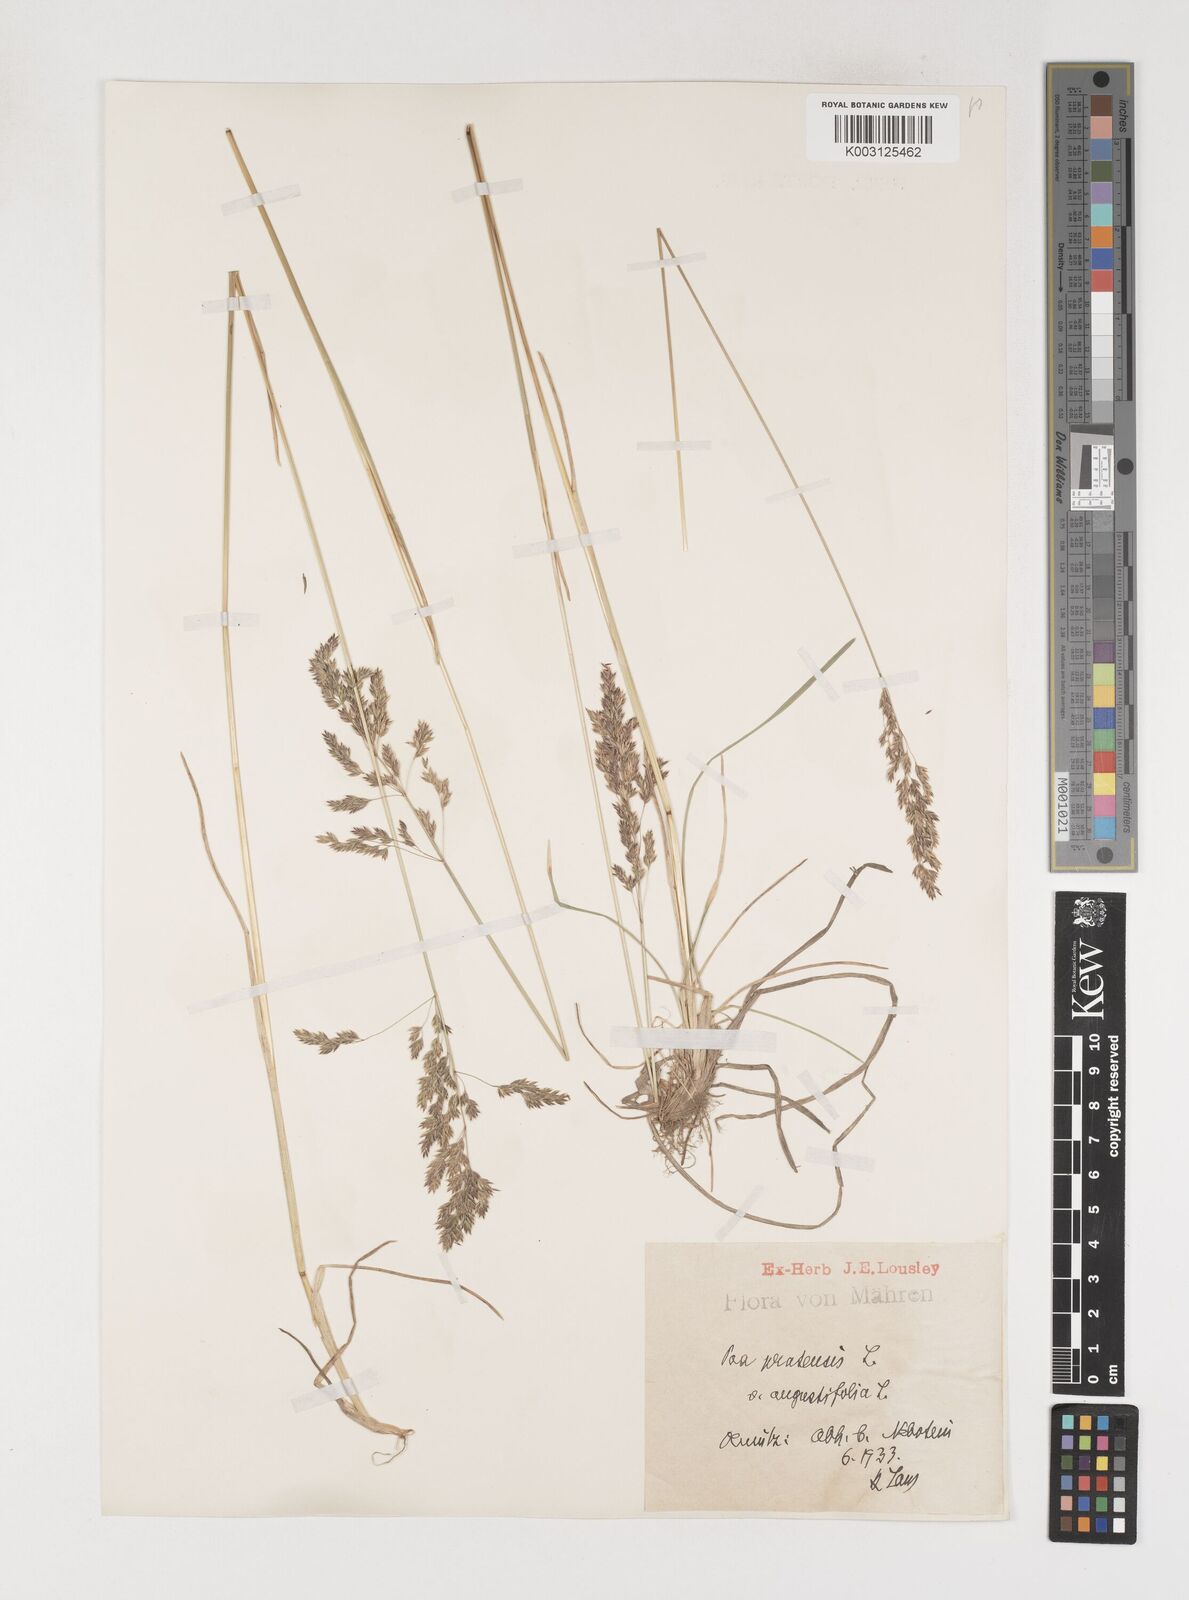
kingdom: Plantae
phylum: Tracheophyta
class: Liliopsida
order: Poales
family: Poaceae
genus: Poa
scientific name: Poa angustifolia
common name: Narrow-leaved meadow-grass
